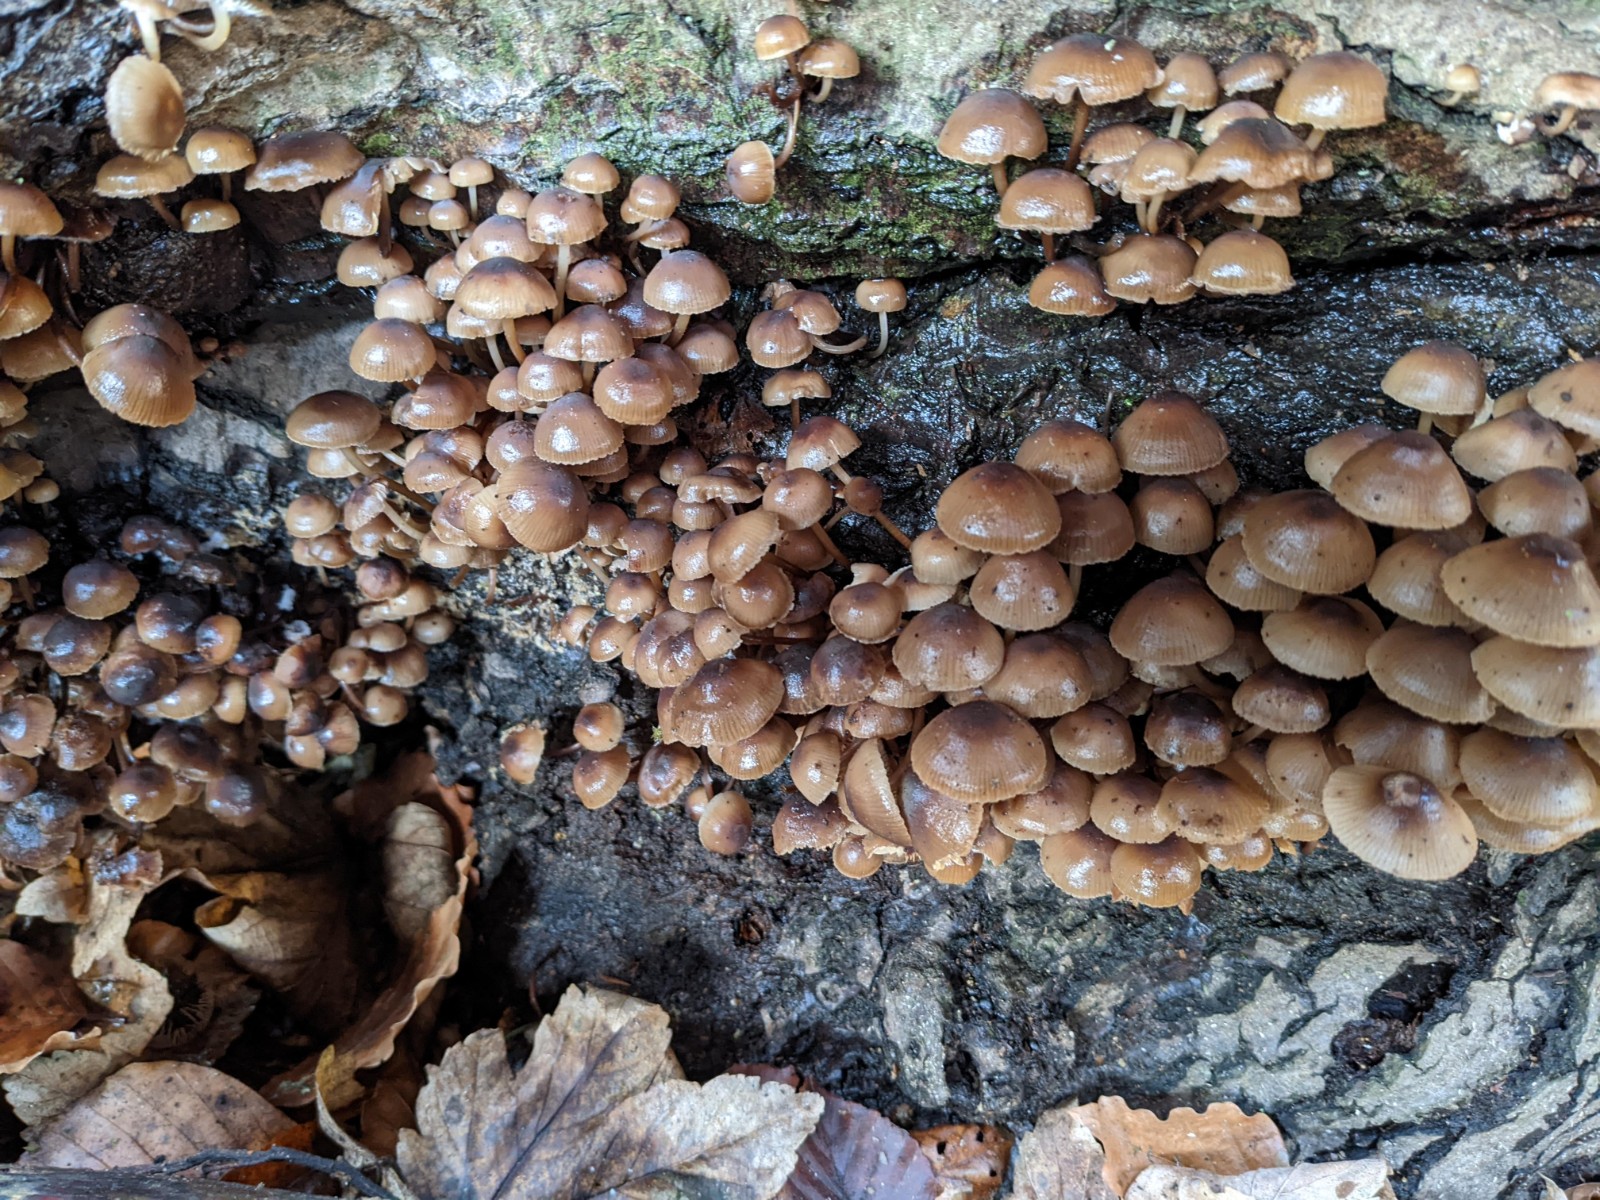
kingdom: Fungi
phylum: Basidiomycota
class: Agaricomycetes
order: Agaricales
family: Mycenaceae
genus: Mycena
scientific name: Mycena tintinnabulum
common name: vinter-huesvamp
